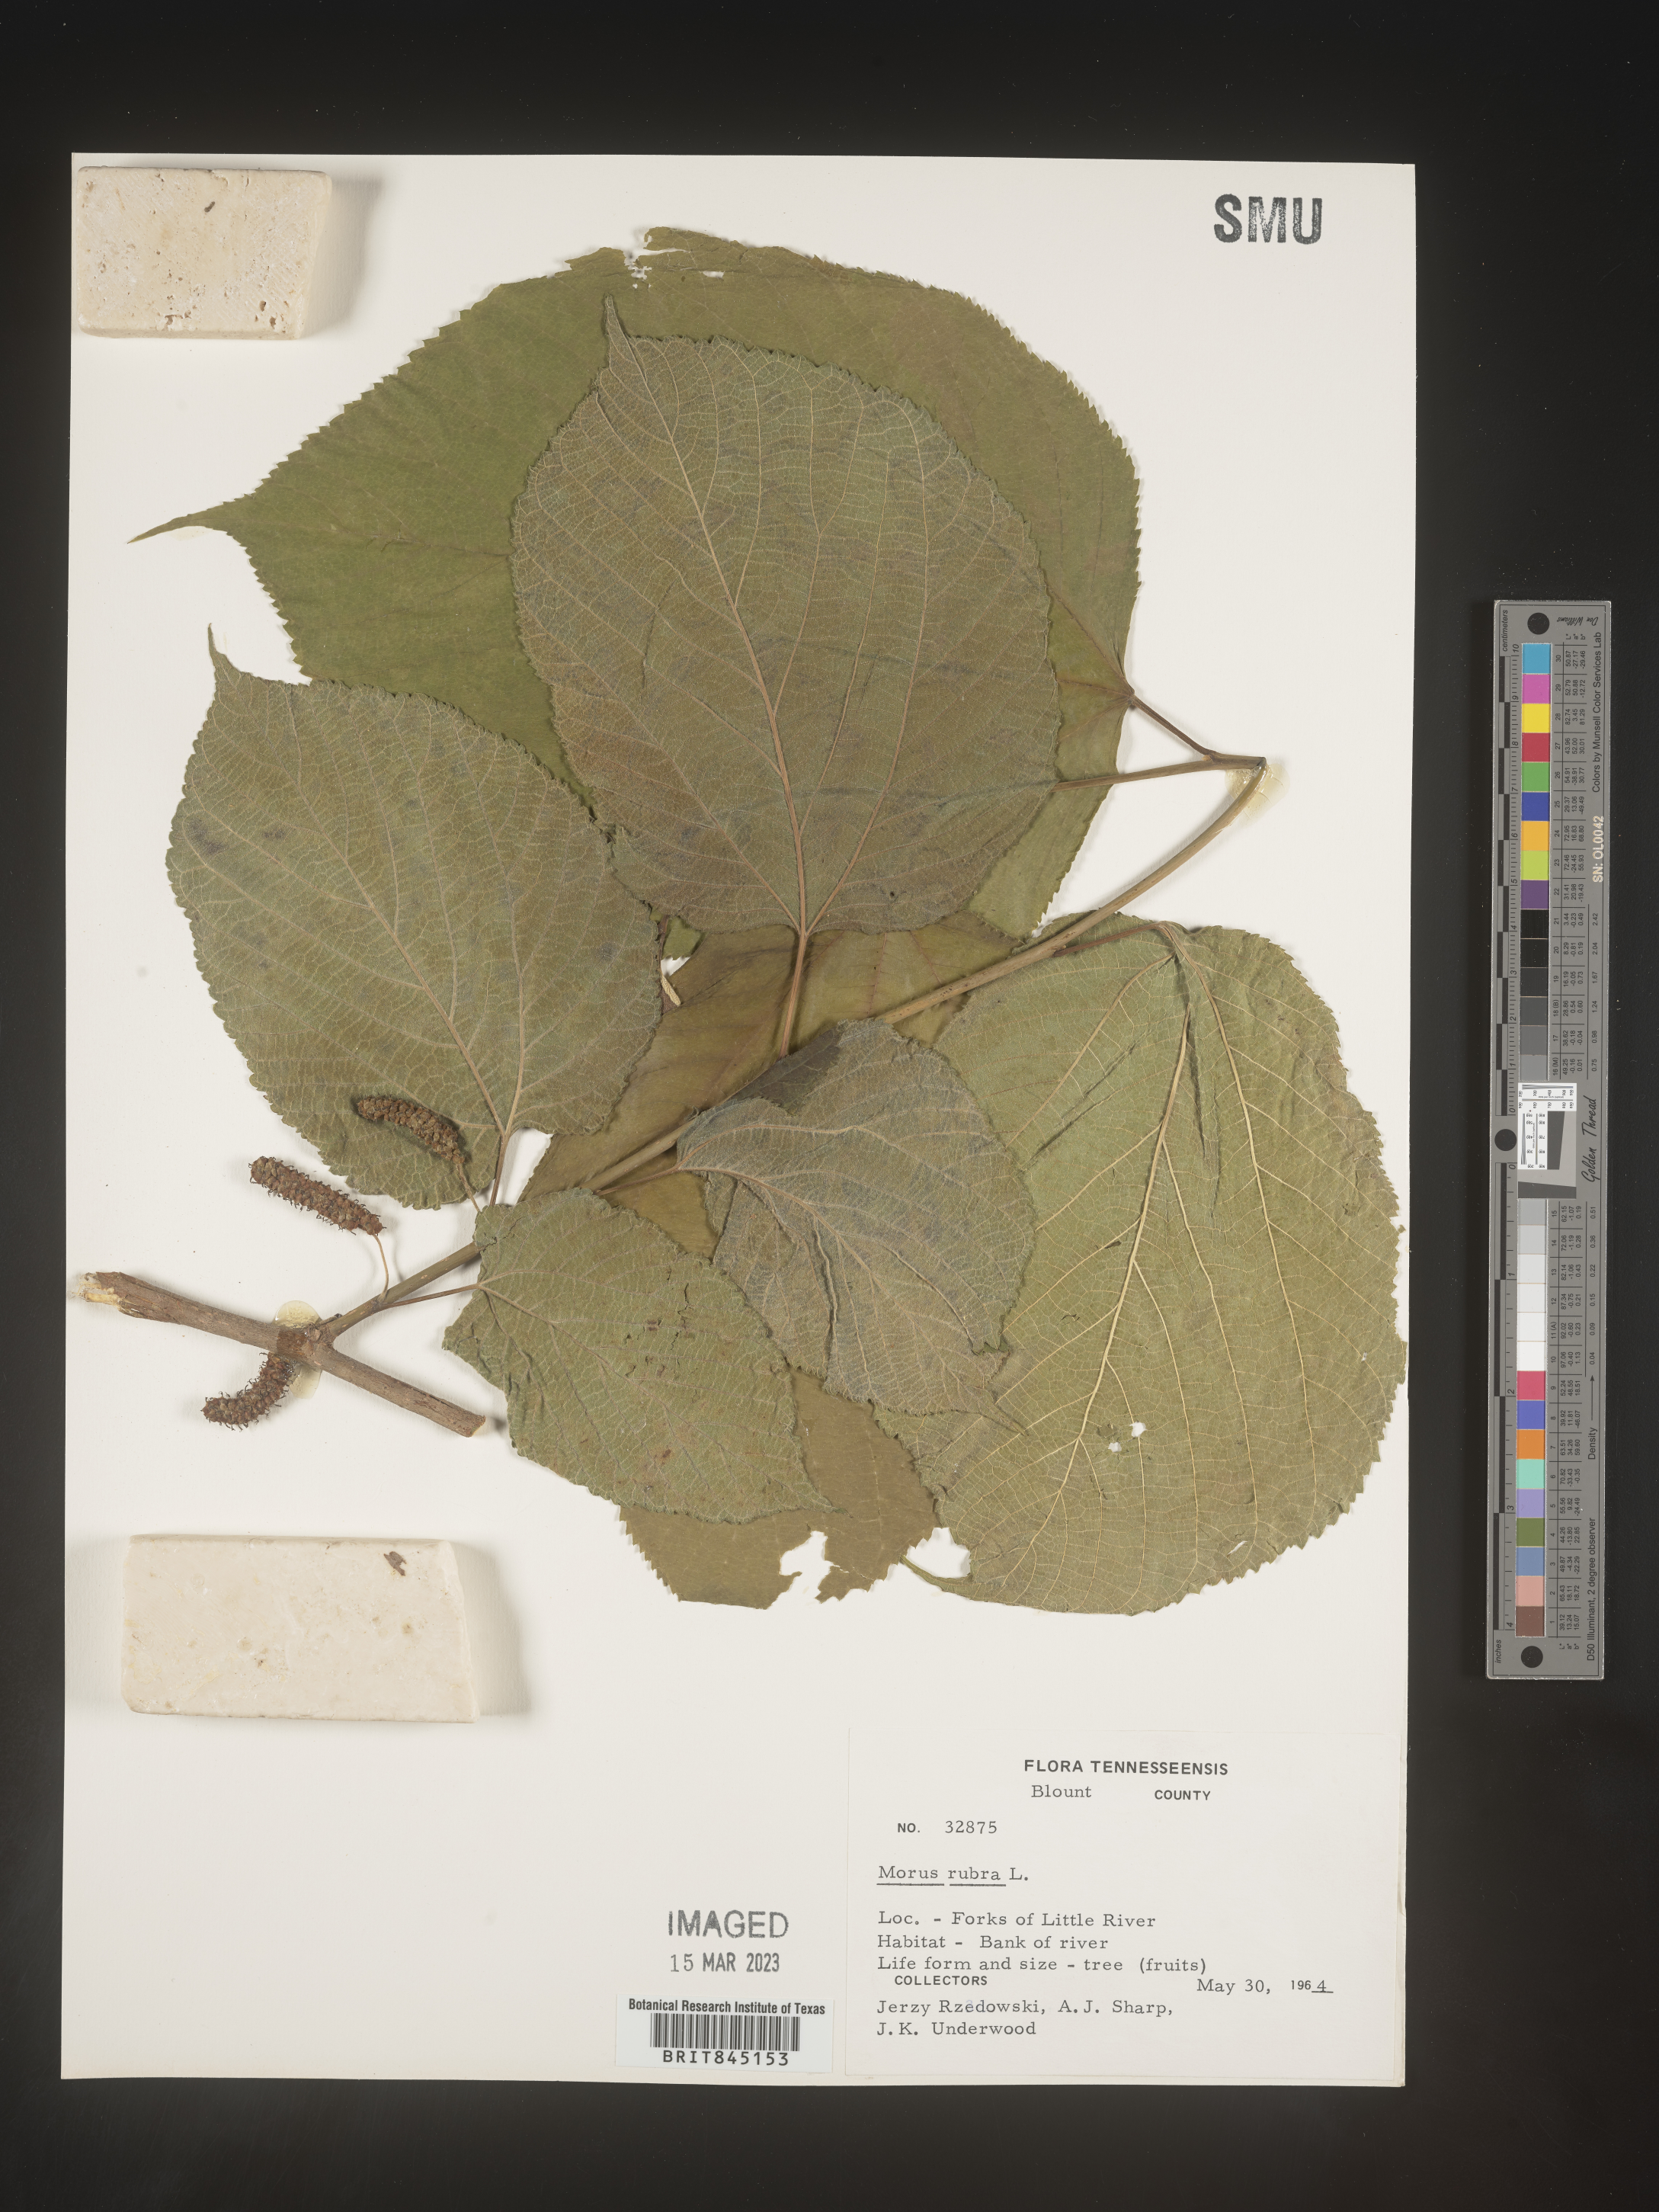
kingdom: Plantae
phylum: Tracheophyta
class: Magnoliopsida
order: Rosales
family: Moraceae
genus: Morus
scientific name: Morus rubra
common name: Red mulberry
